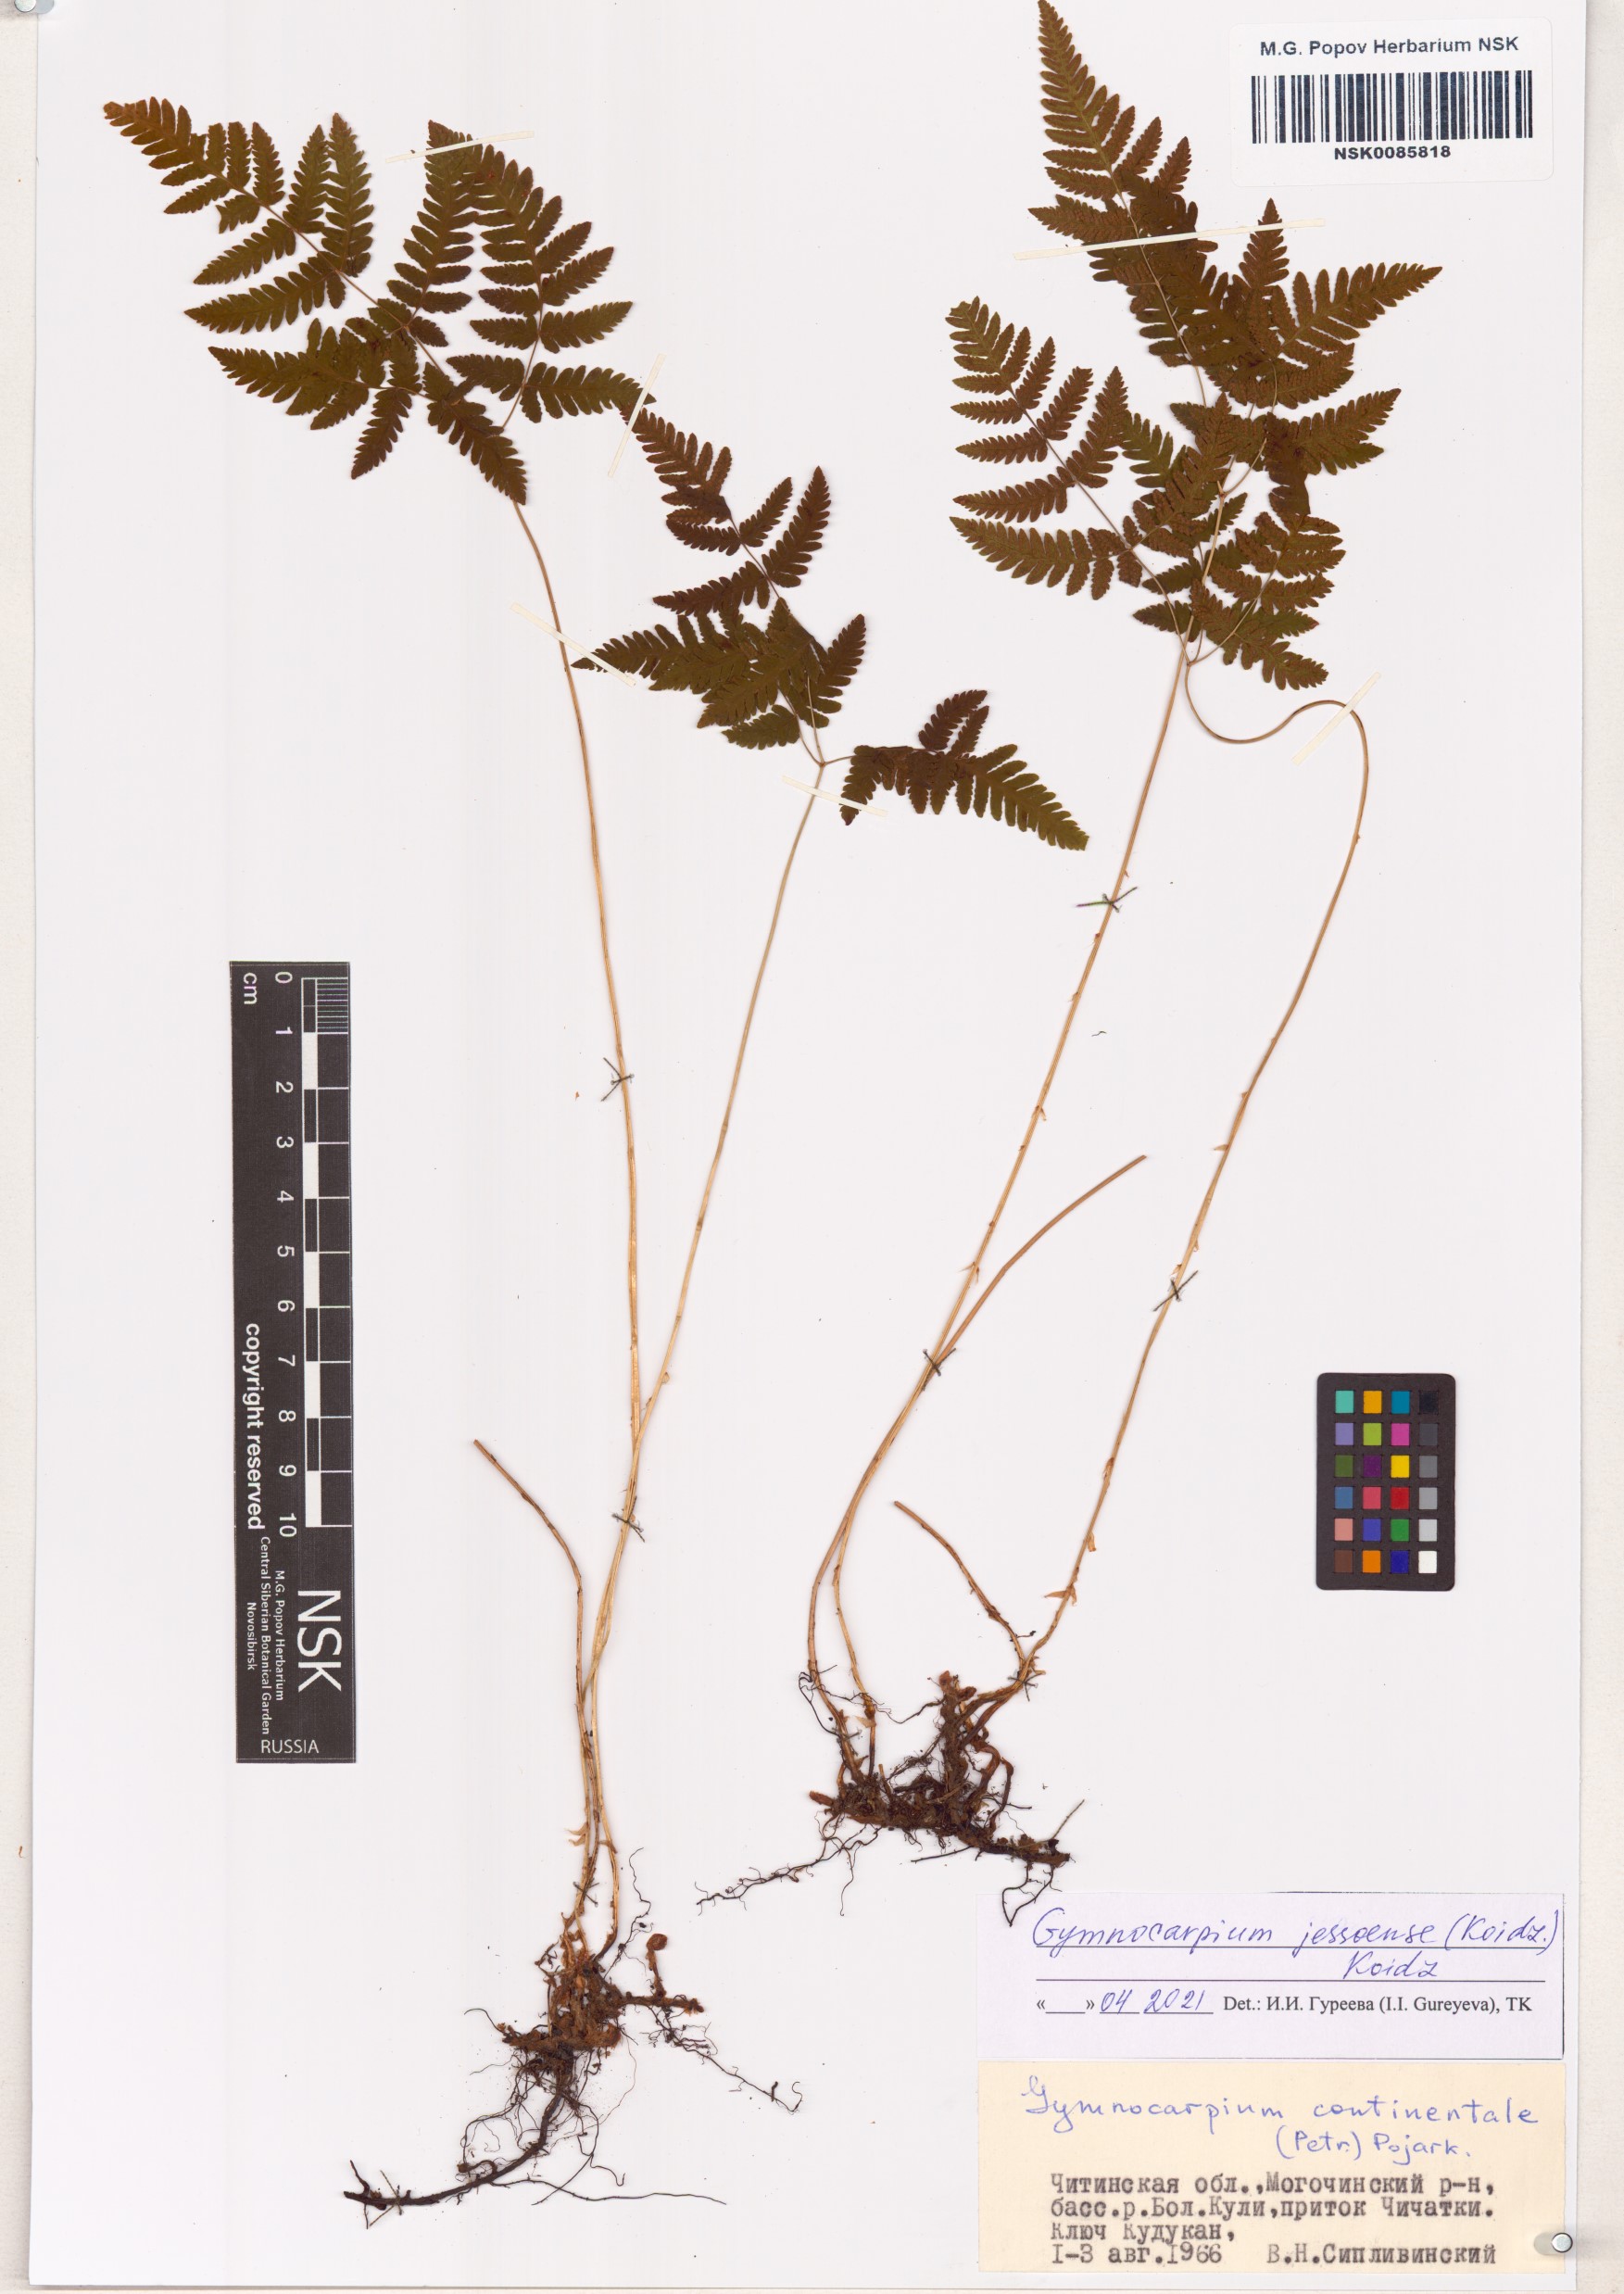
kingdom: Plantae
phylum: Tracheophyta
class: Polypodiopsida
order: Polypodiales
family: Cystopteridaceae
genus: Gymnocarpium
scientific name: Gymnocarpium jessoense
